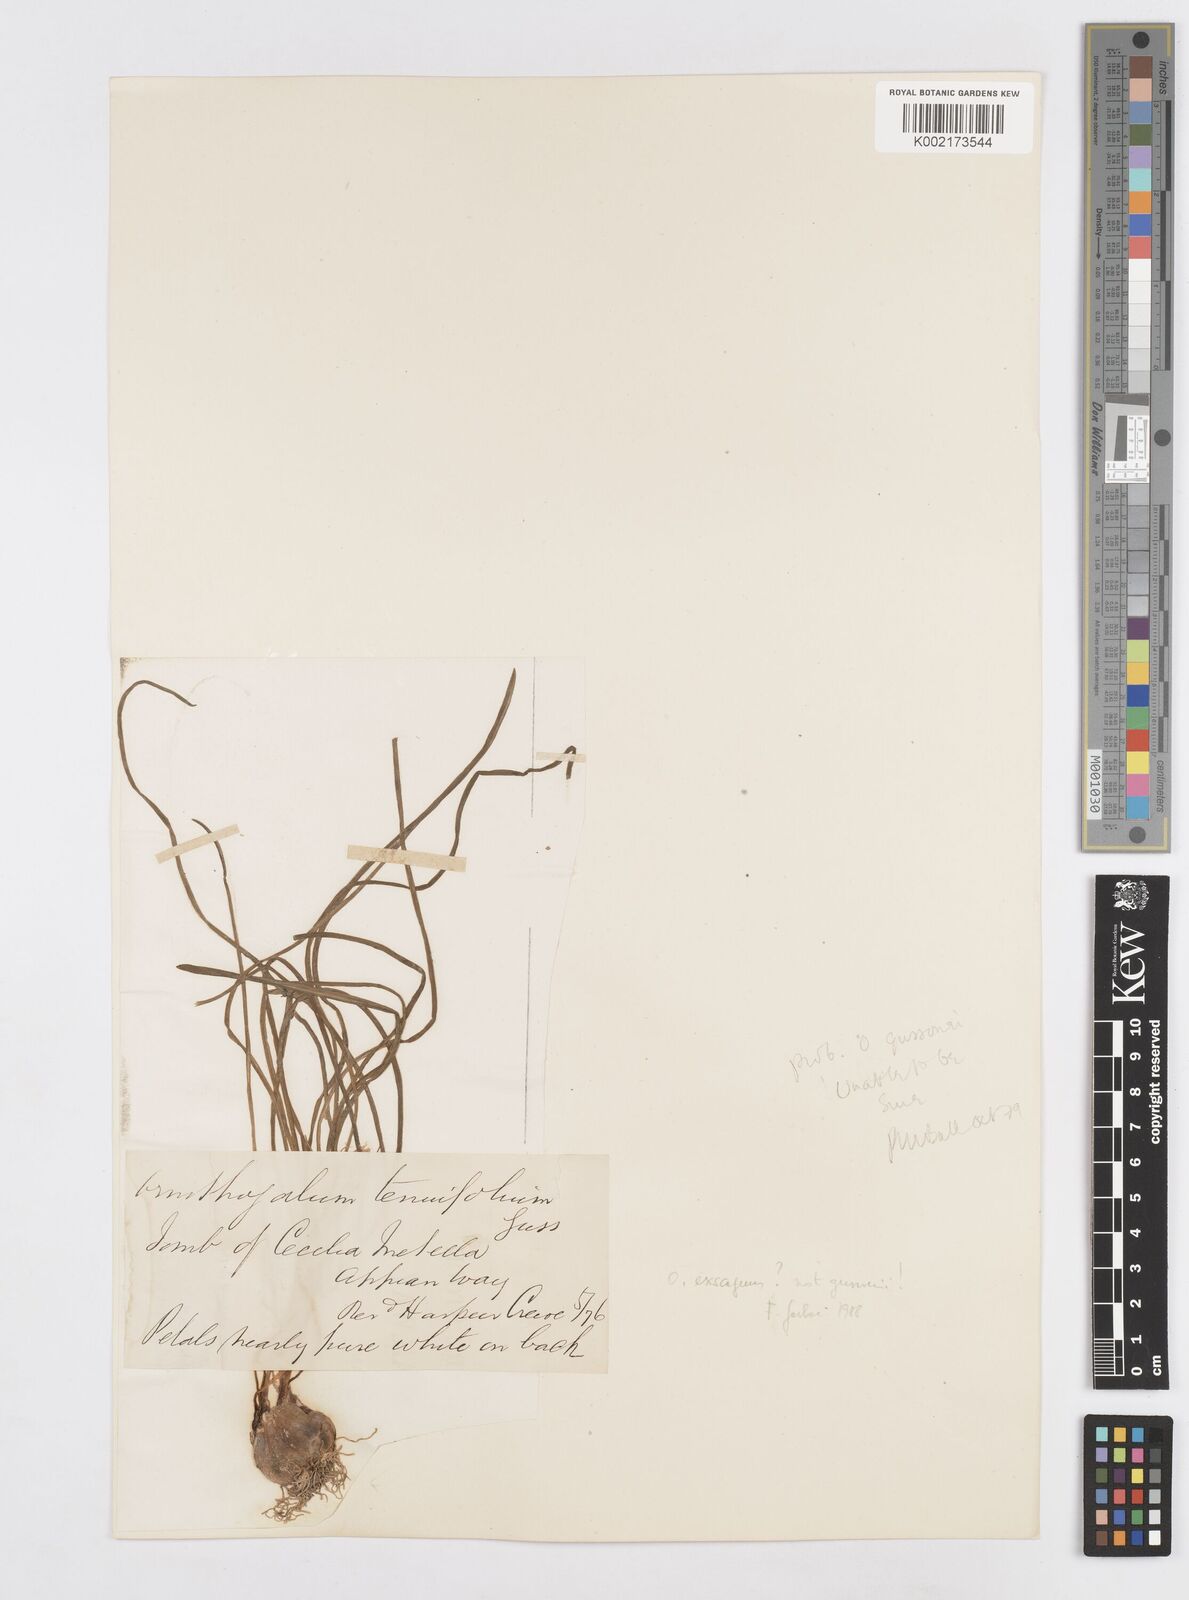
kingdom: Plantae
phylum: Tracheophyta
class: Liliopsida
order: Asparagales
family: Asparagaceae
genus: Ornithogalum
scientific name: Ornithogalum gussonei
